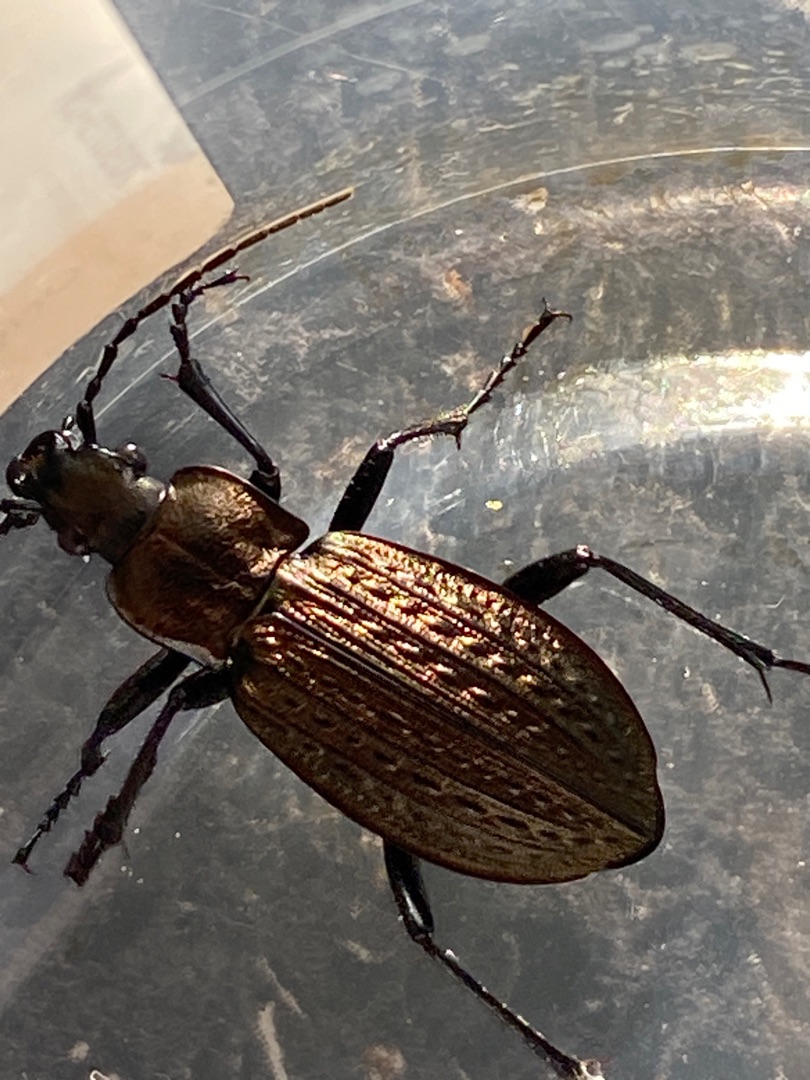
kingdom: Animalia
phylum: Arthropoda
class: Insecta
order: Coleoptera
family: Carabidae
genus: Carabus
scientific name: Carabus granulatus
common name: Kornet løber
